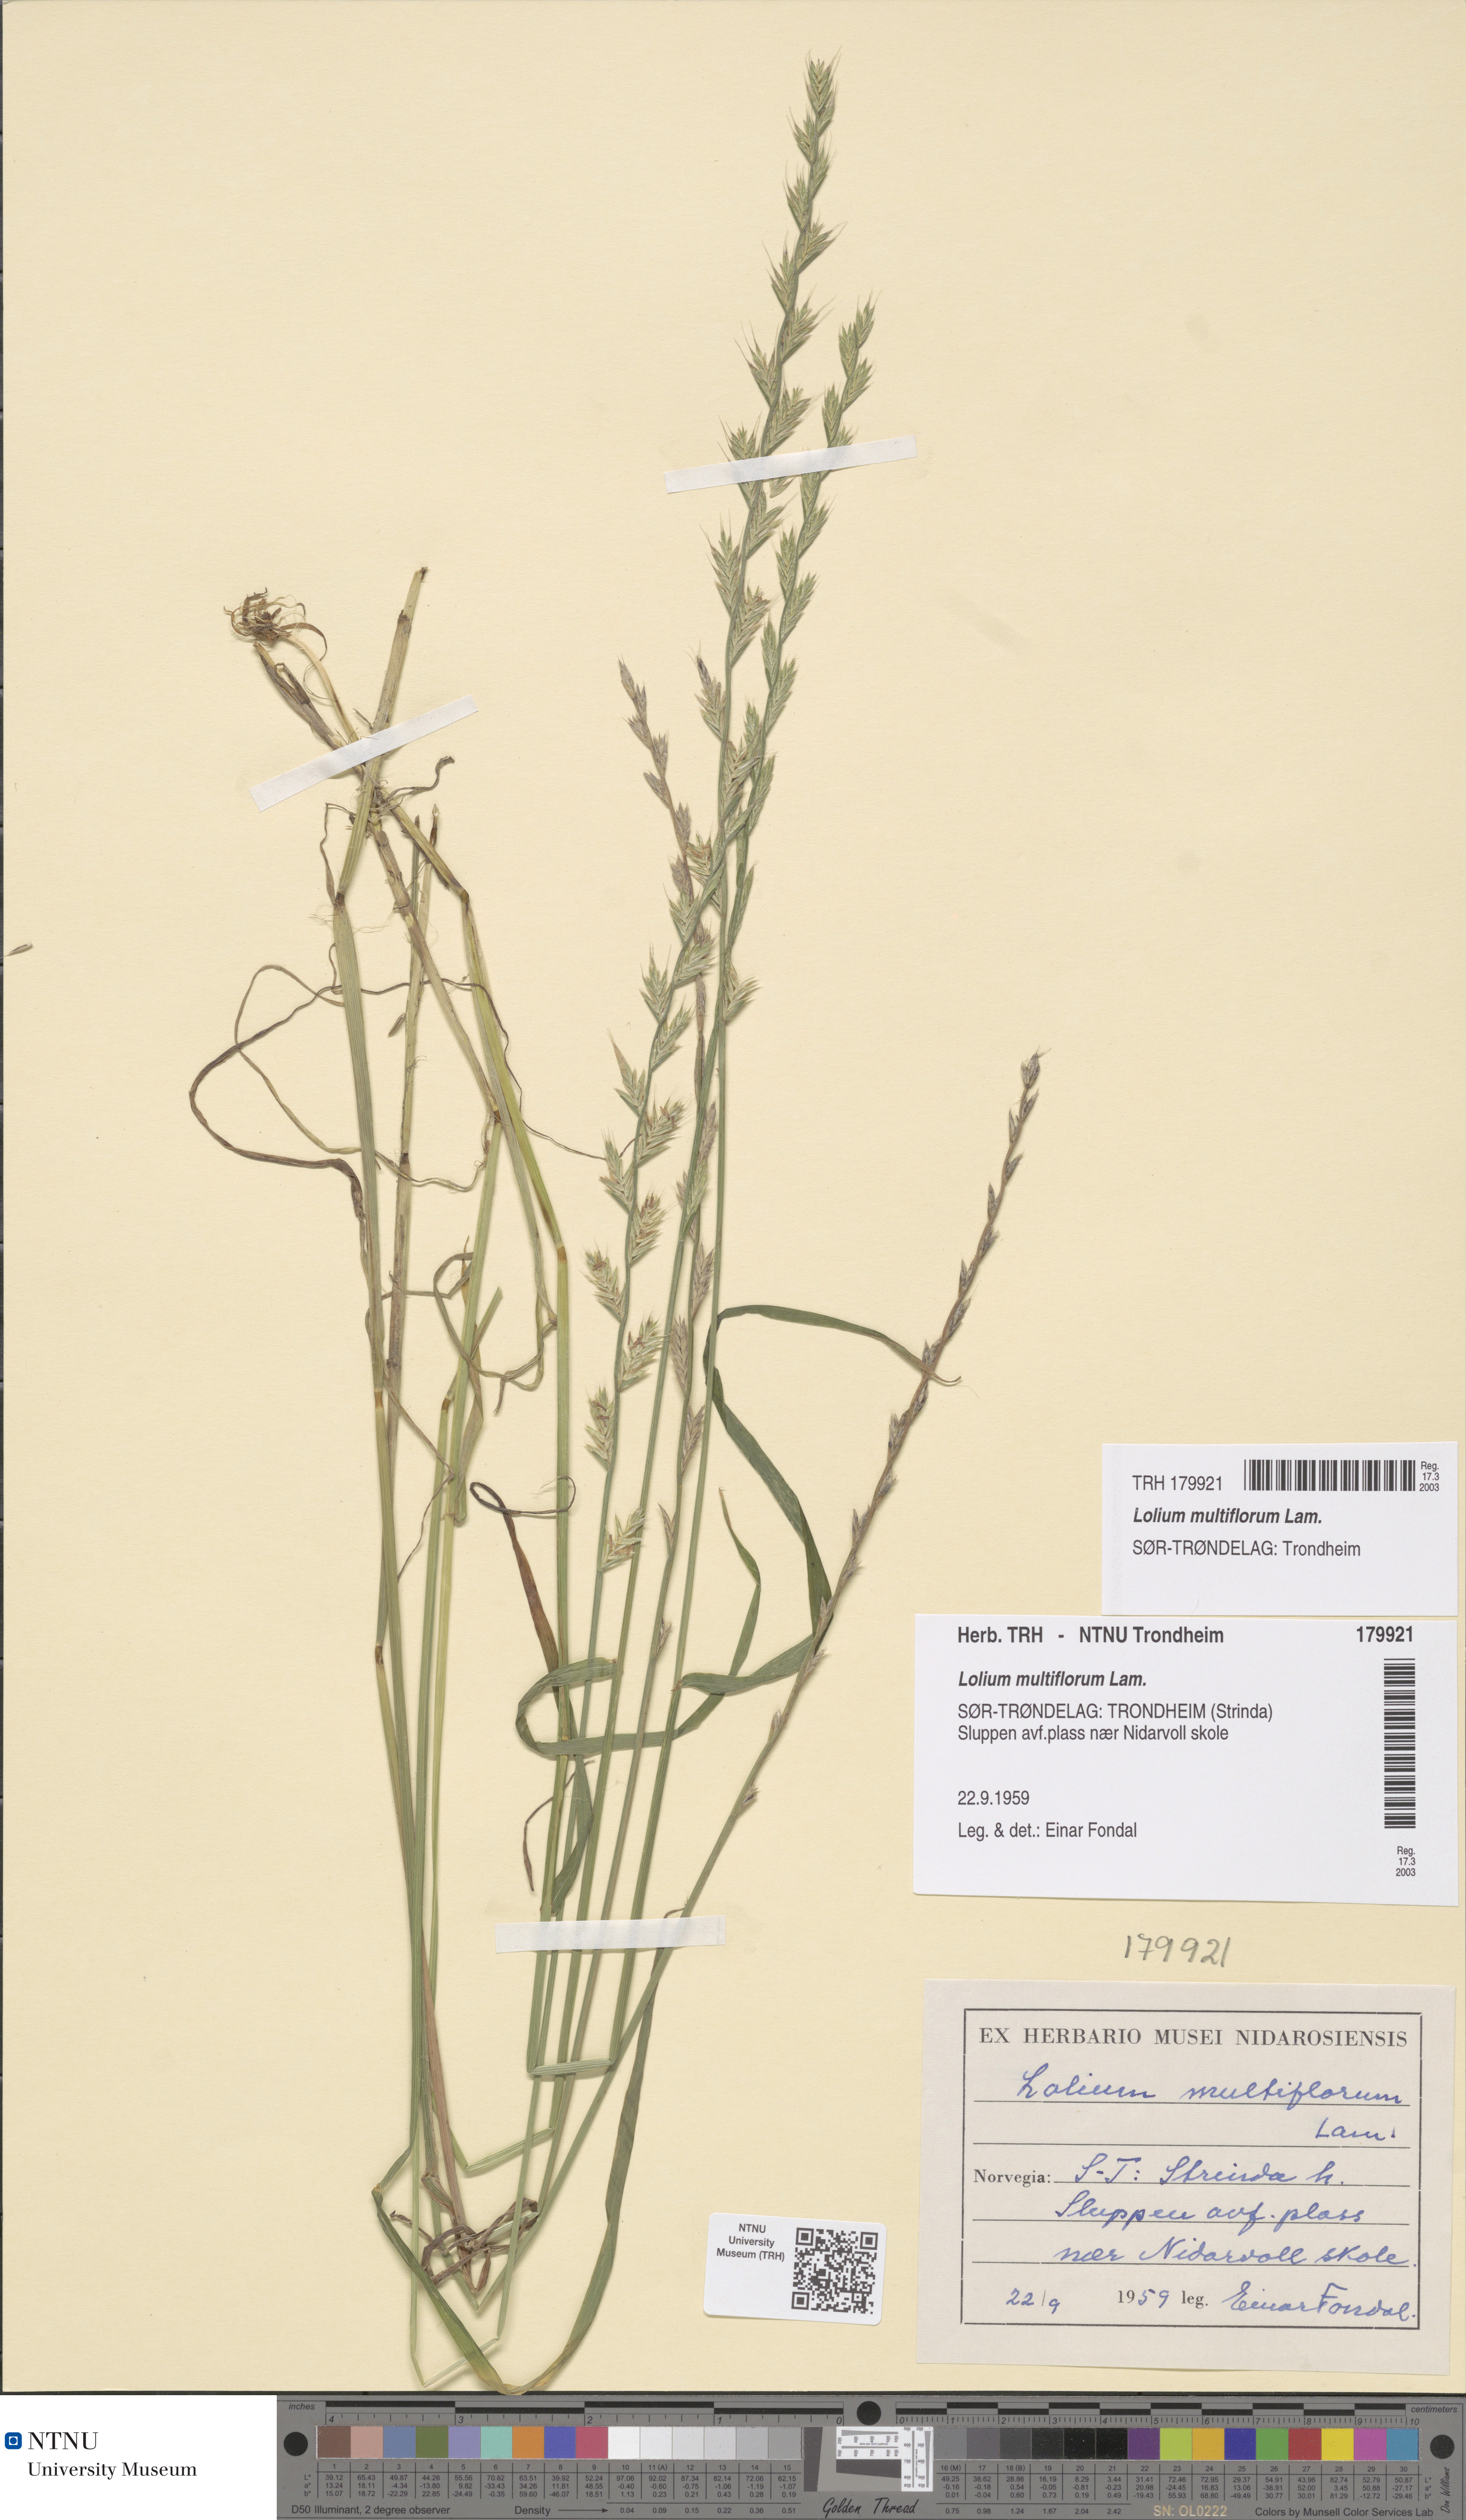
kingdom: Plantae
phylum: Tracheophyta
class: Liliopsida
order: Poales
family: Poaceae
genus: Lolium
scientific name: Lolium multiflorum
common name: Annual ryegrass
